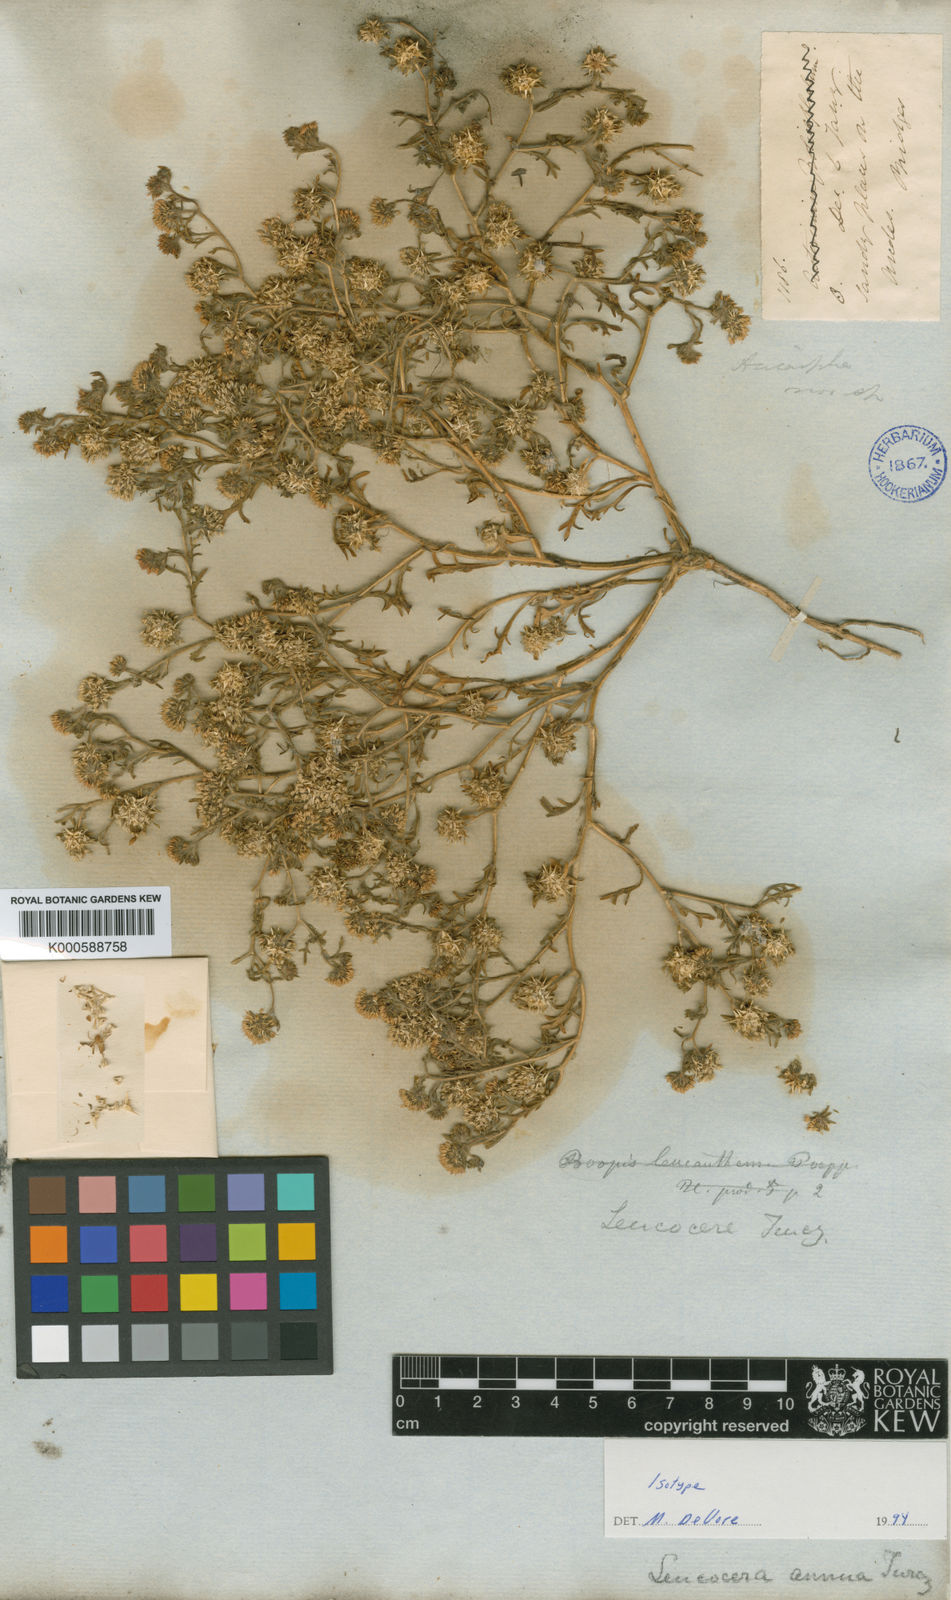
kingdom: Plantae
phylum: Tracheophyta
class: Magnoliopsida
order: Asterales
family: Calyceraceae
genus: Calycera
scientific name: Calycera
